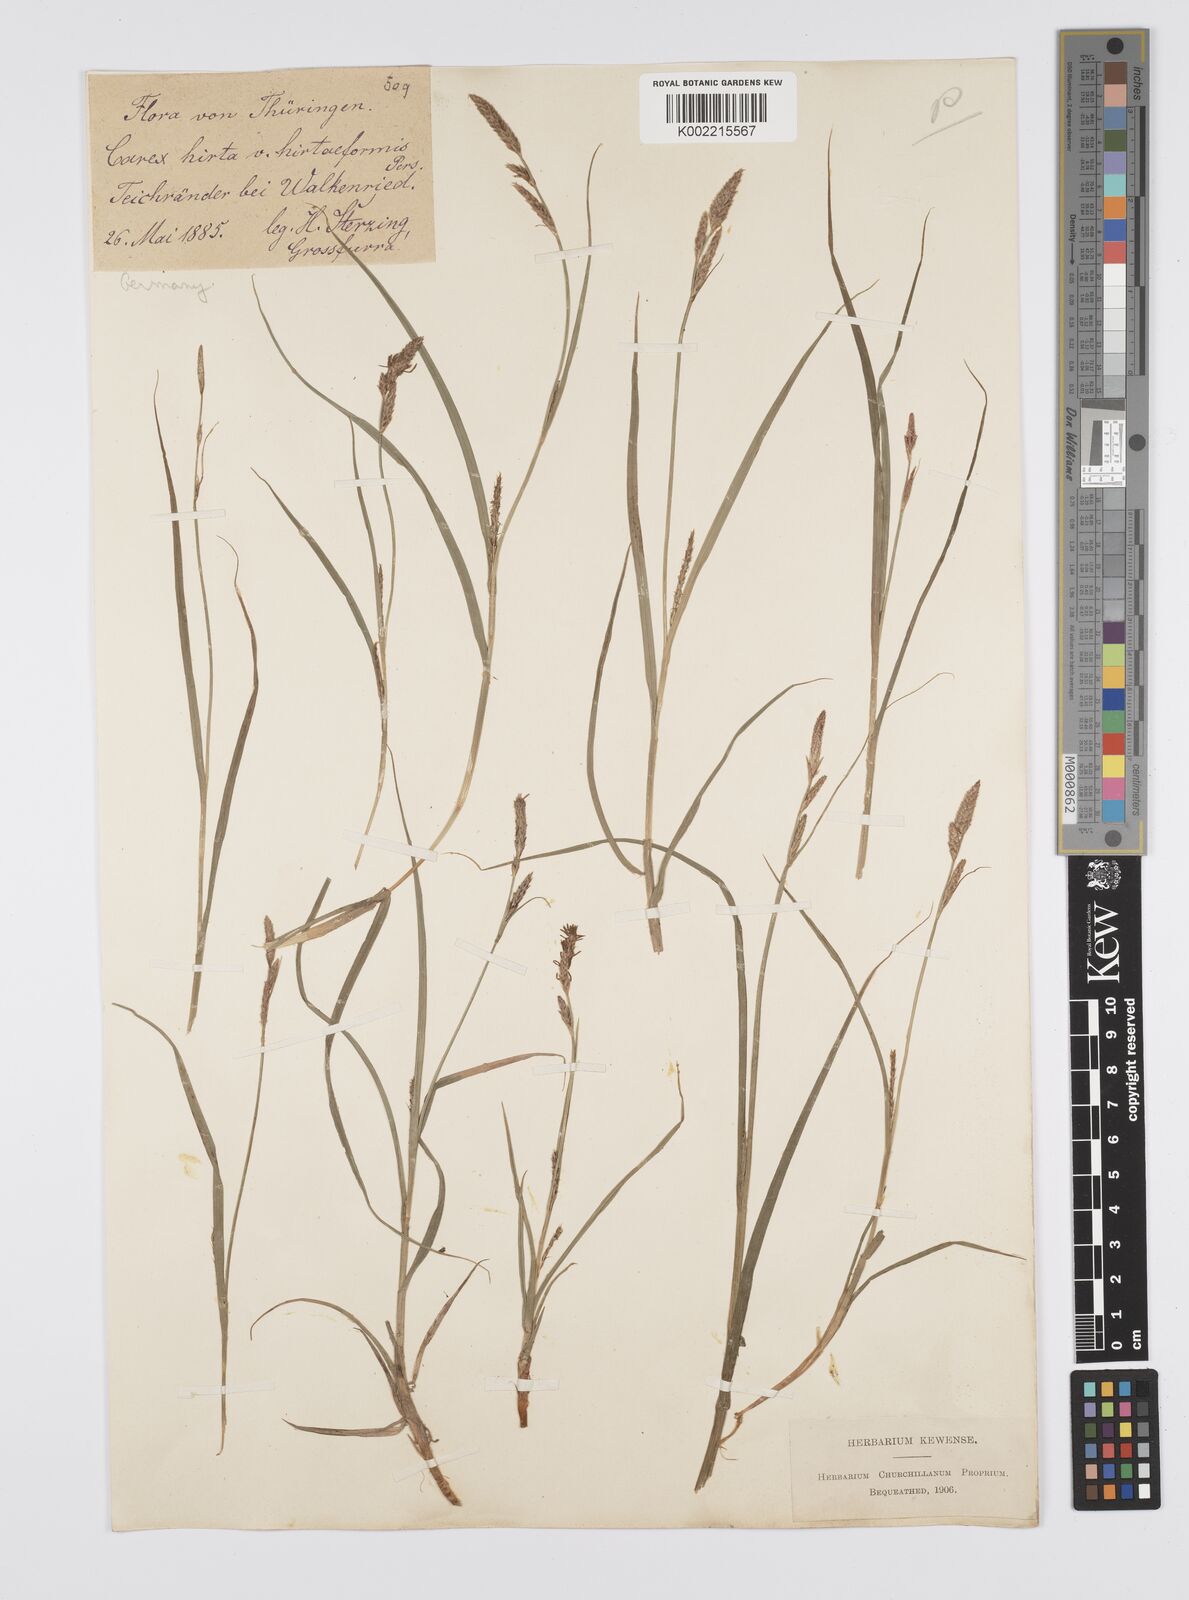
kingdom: Plantae
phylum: Tracheophyta
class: Liliopsida
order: Poales
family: Cyperaceae
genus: Carex
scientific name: Carex hirta
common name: Hairy sedge
